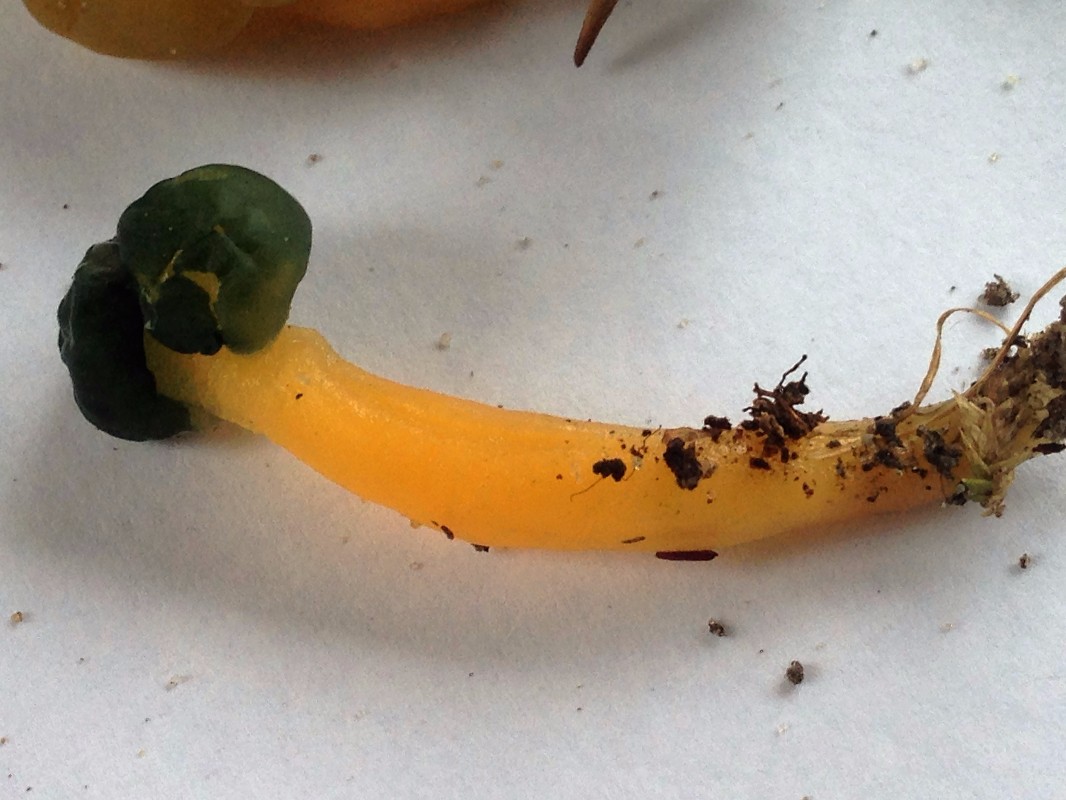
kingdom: Fungi
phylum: Ascomycota
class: Leotiomycetes
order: Leotiales
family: Leotiaceae
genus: Leotia
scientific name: Leotia lubrica
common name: ravsvamp
